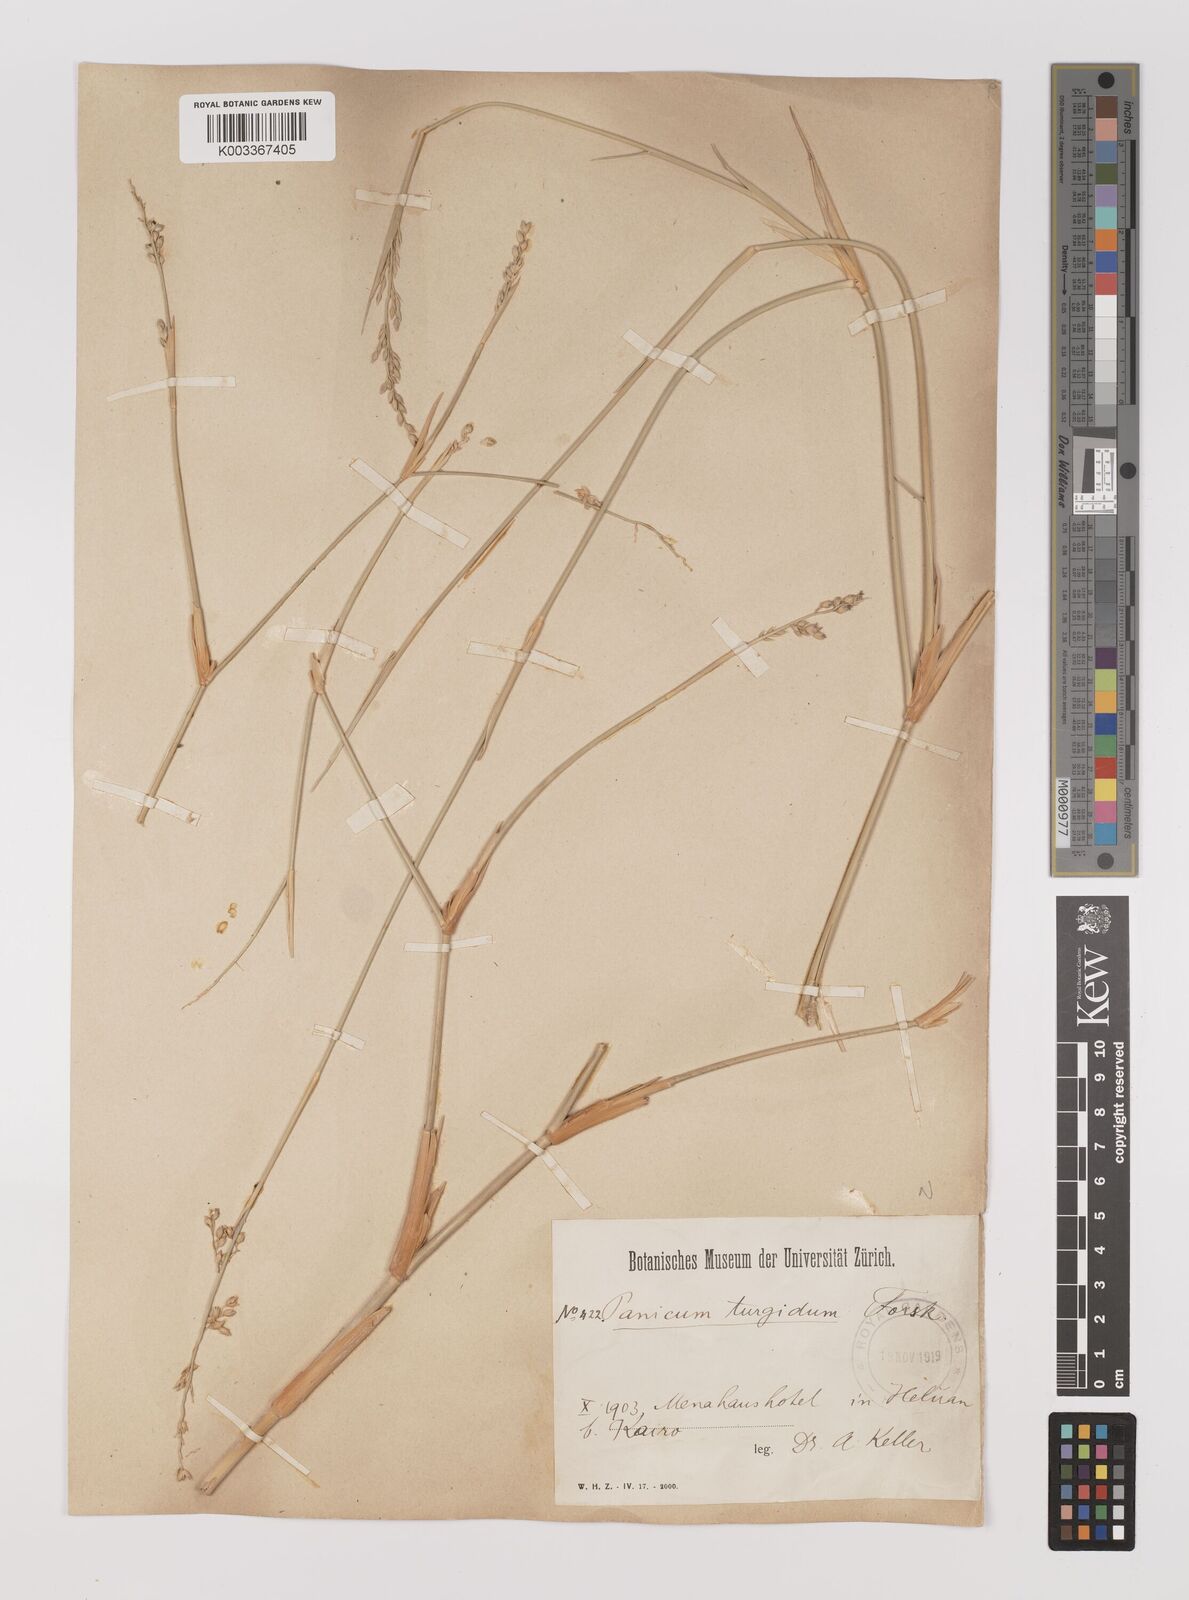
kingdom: Plantae
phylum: Tracheophyta
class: Liliopsida
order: Poales
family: Poaceae
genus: Panicum
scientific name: Panicum turgidum
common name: Desert grass
